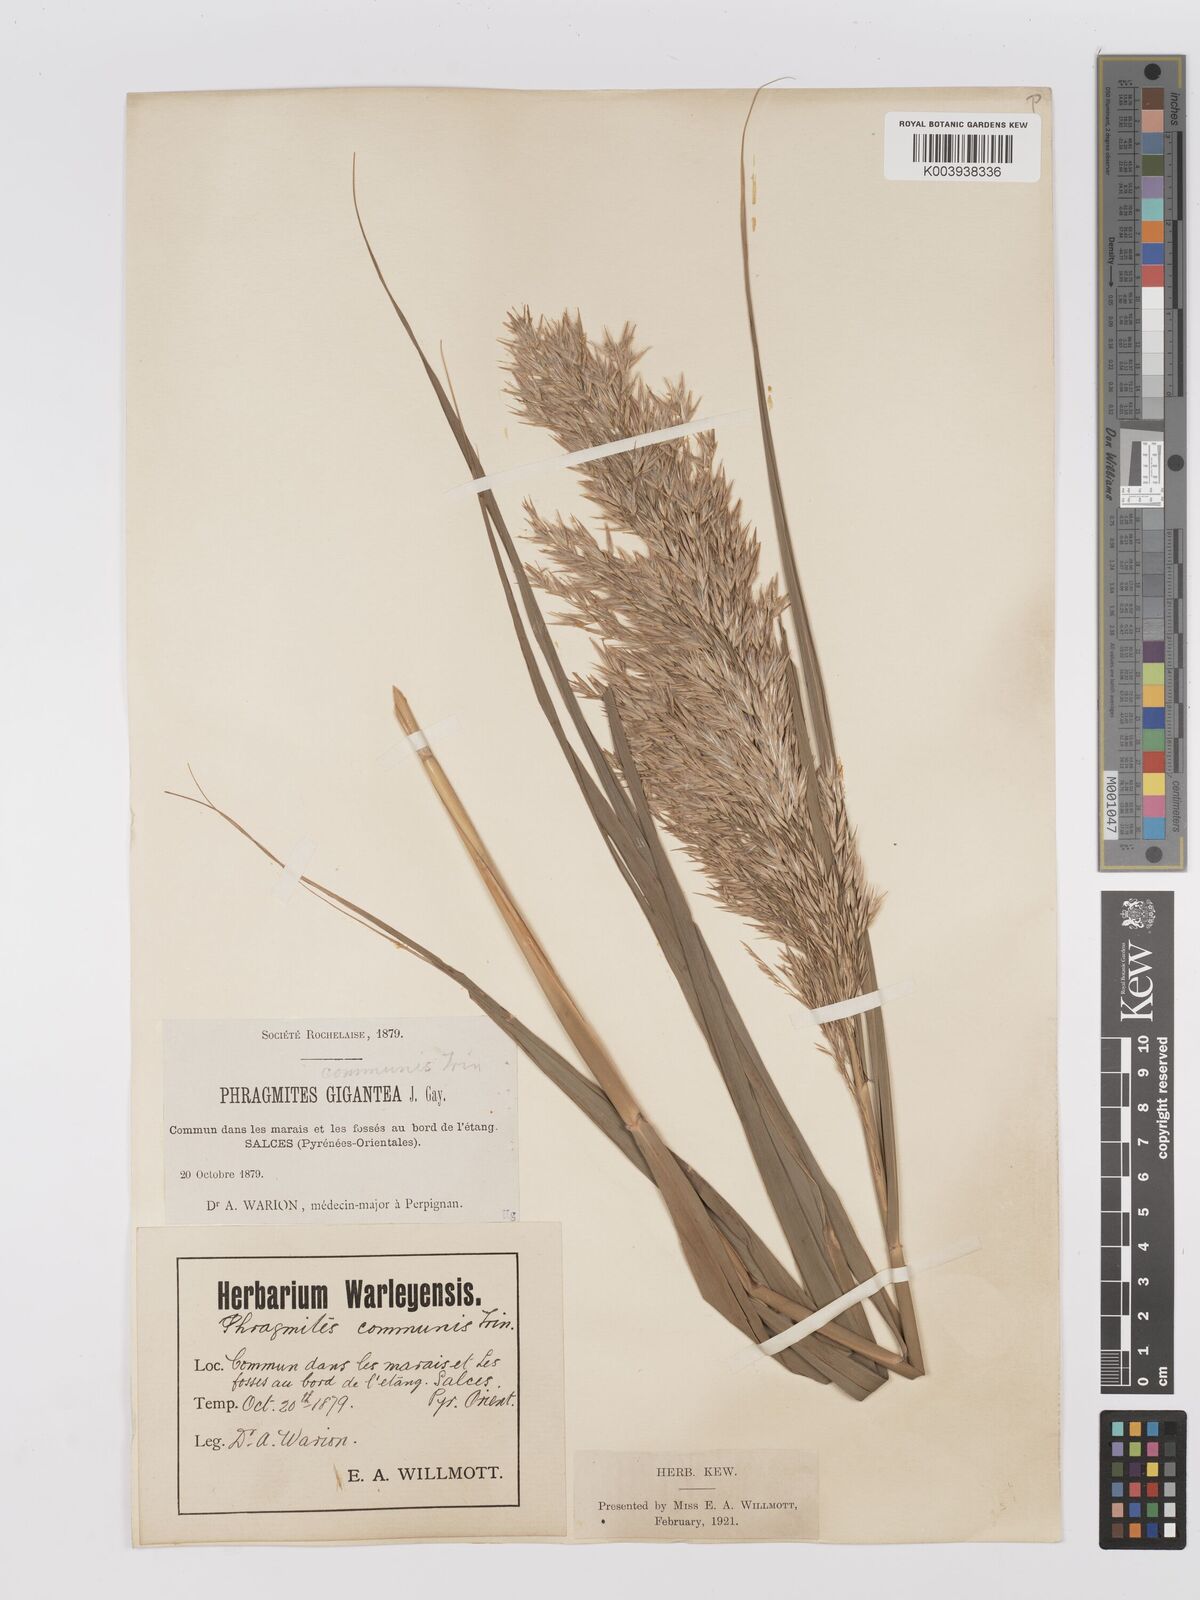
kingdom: Plantae
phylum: Tracheophyta
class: Liliopsida
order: Poales
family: Poaceae
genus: Phragmites
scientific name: Phragmites australis
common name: Common reed
